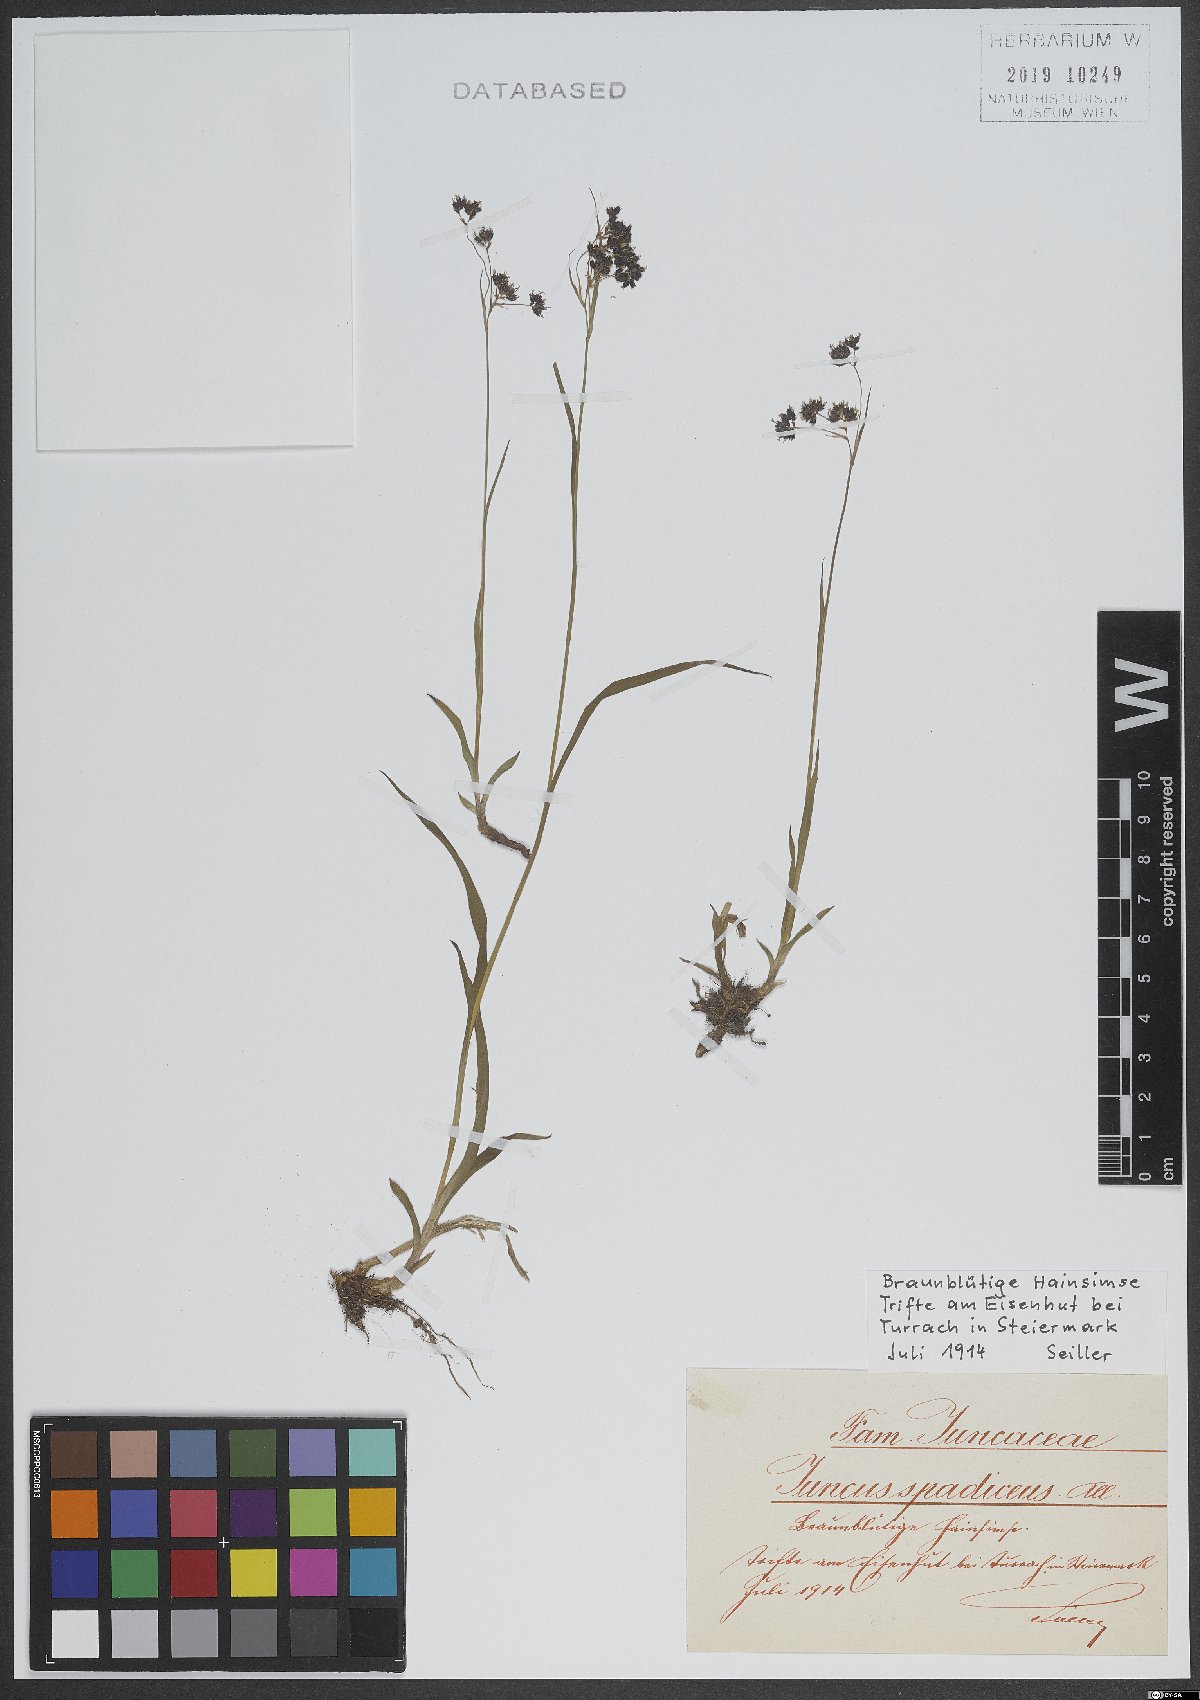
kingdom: Plantae
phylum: Tracheophyta
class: Liliopsida
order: Poales
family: Juncaceae
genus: Juncus
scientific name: Juncus acutiflorus
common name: Sharp-flowered rush
